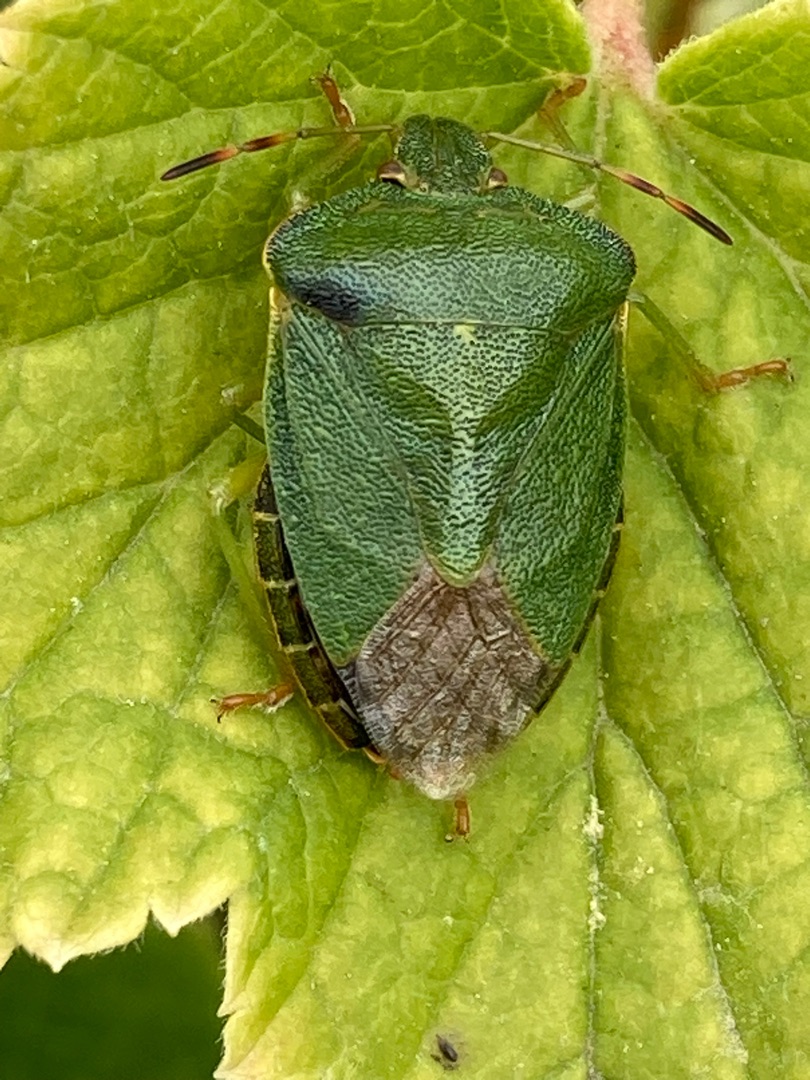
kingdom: Animalia
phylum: Arthropoda
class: Insecta
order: Hemiptera
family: Pentatomidae
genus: Palomena
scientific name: Palomena prasina
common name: Grøn bredtæge
